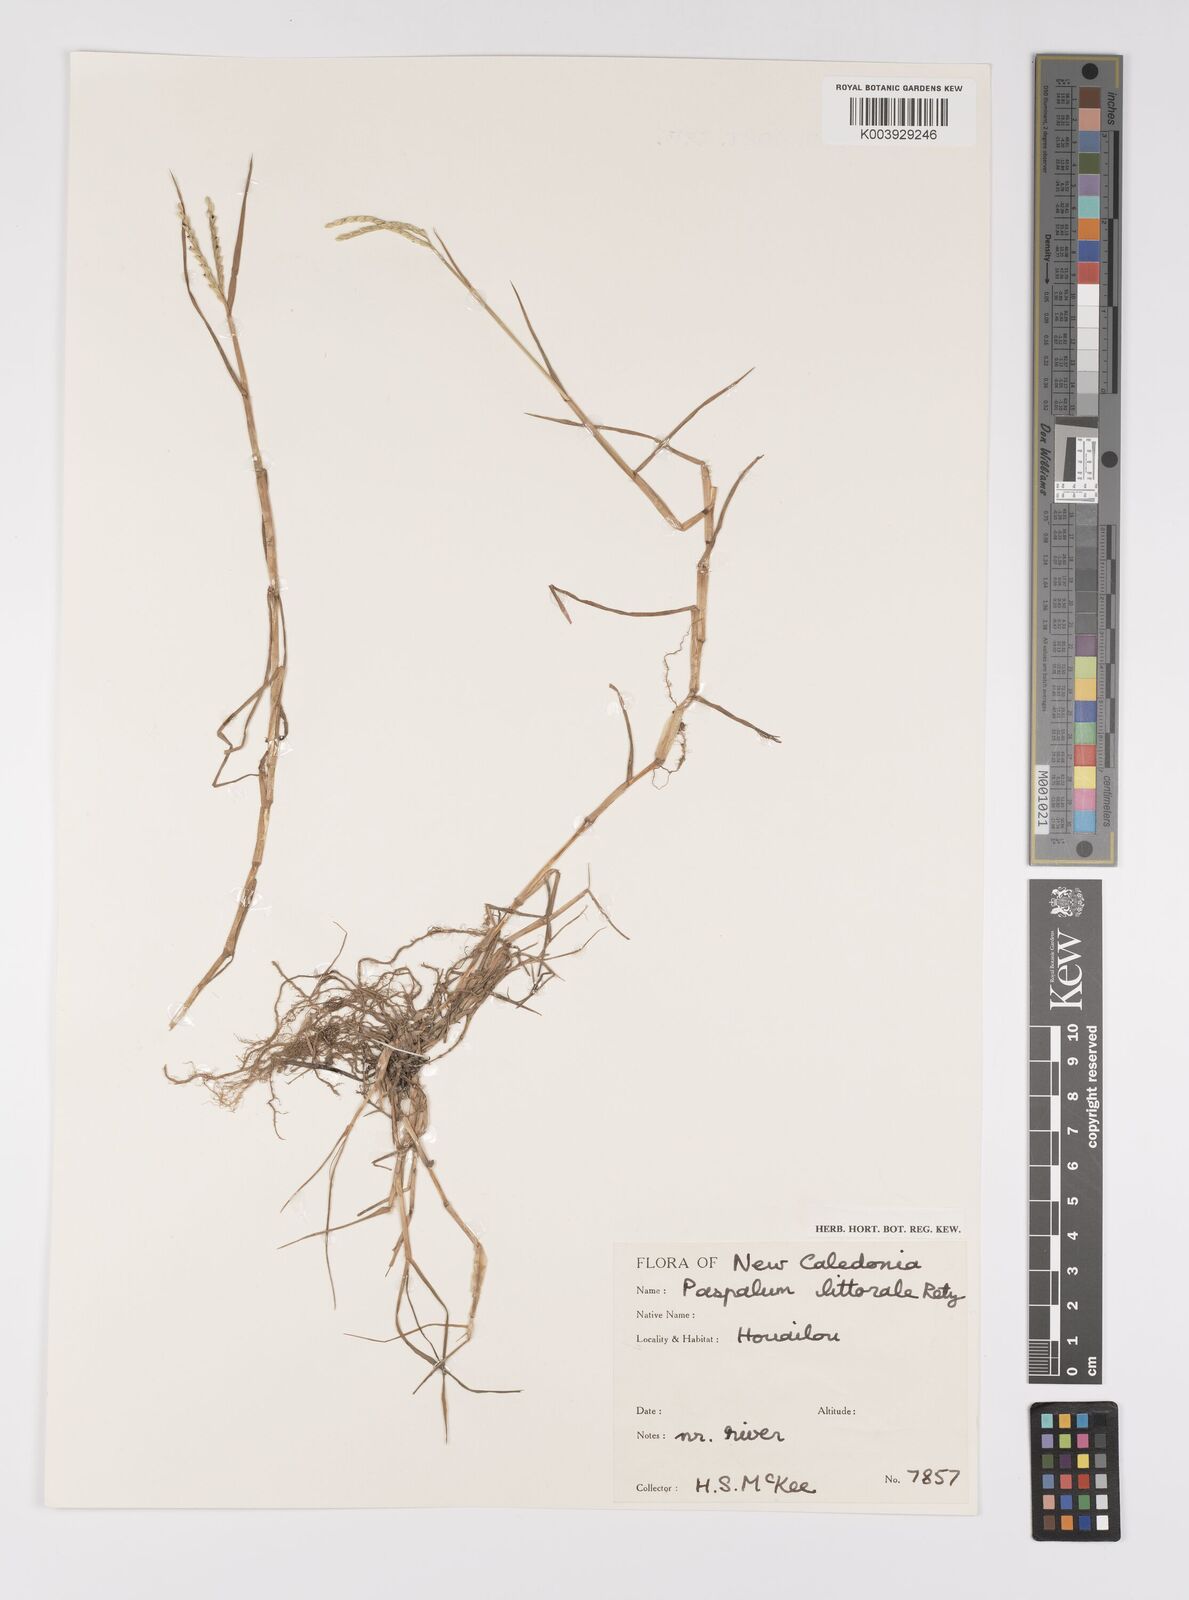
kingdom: Plantae
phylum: Tracheophyta
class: Liliopsida
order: Poales
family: Poaceae
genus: Paspalum
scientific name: Paspalum distichum
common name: Knotgrass
